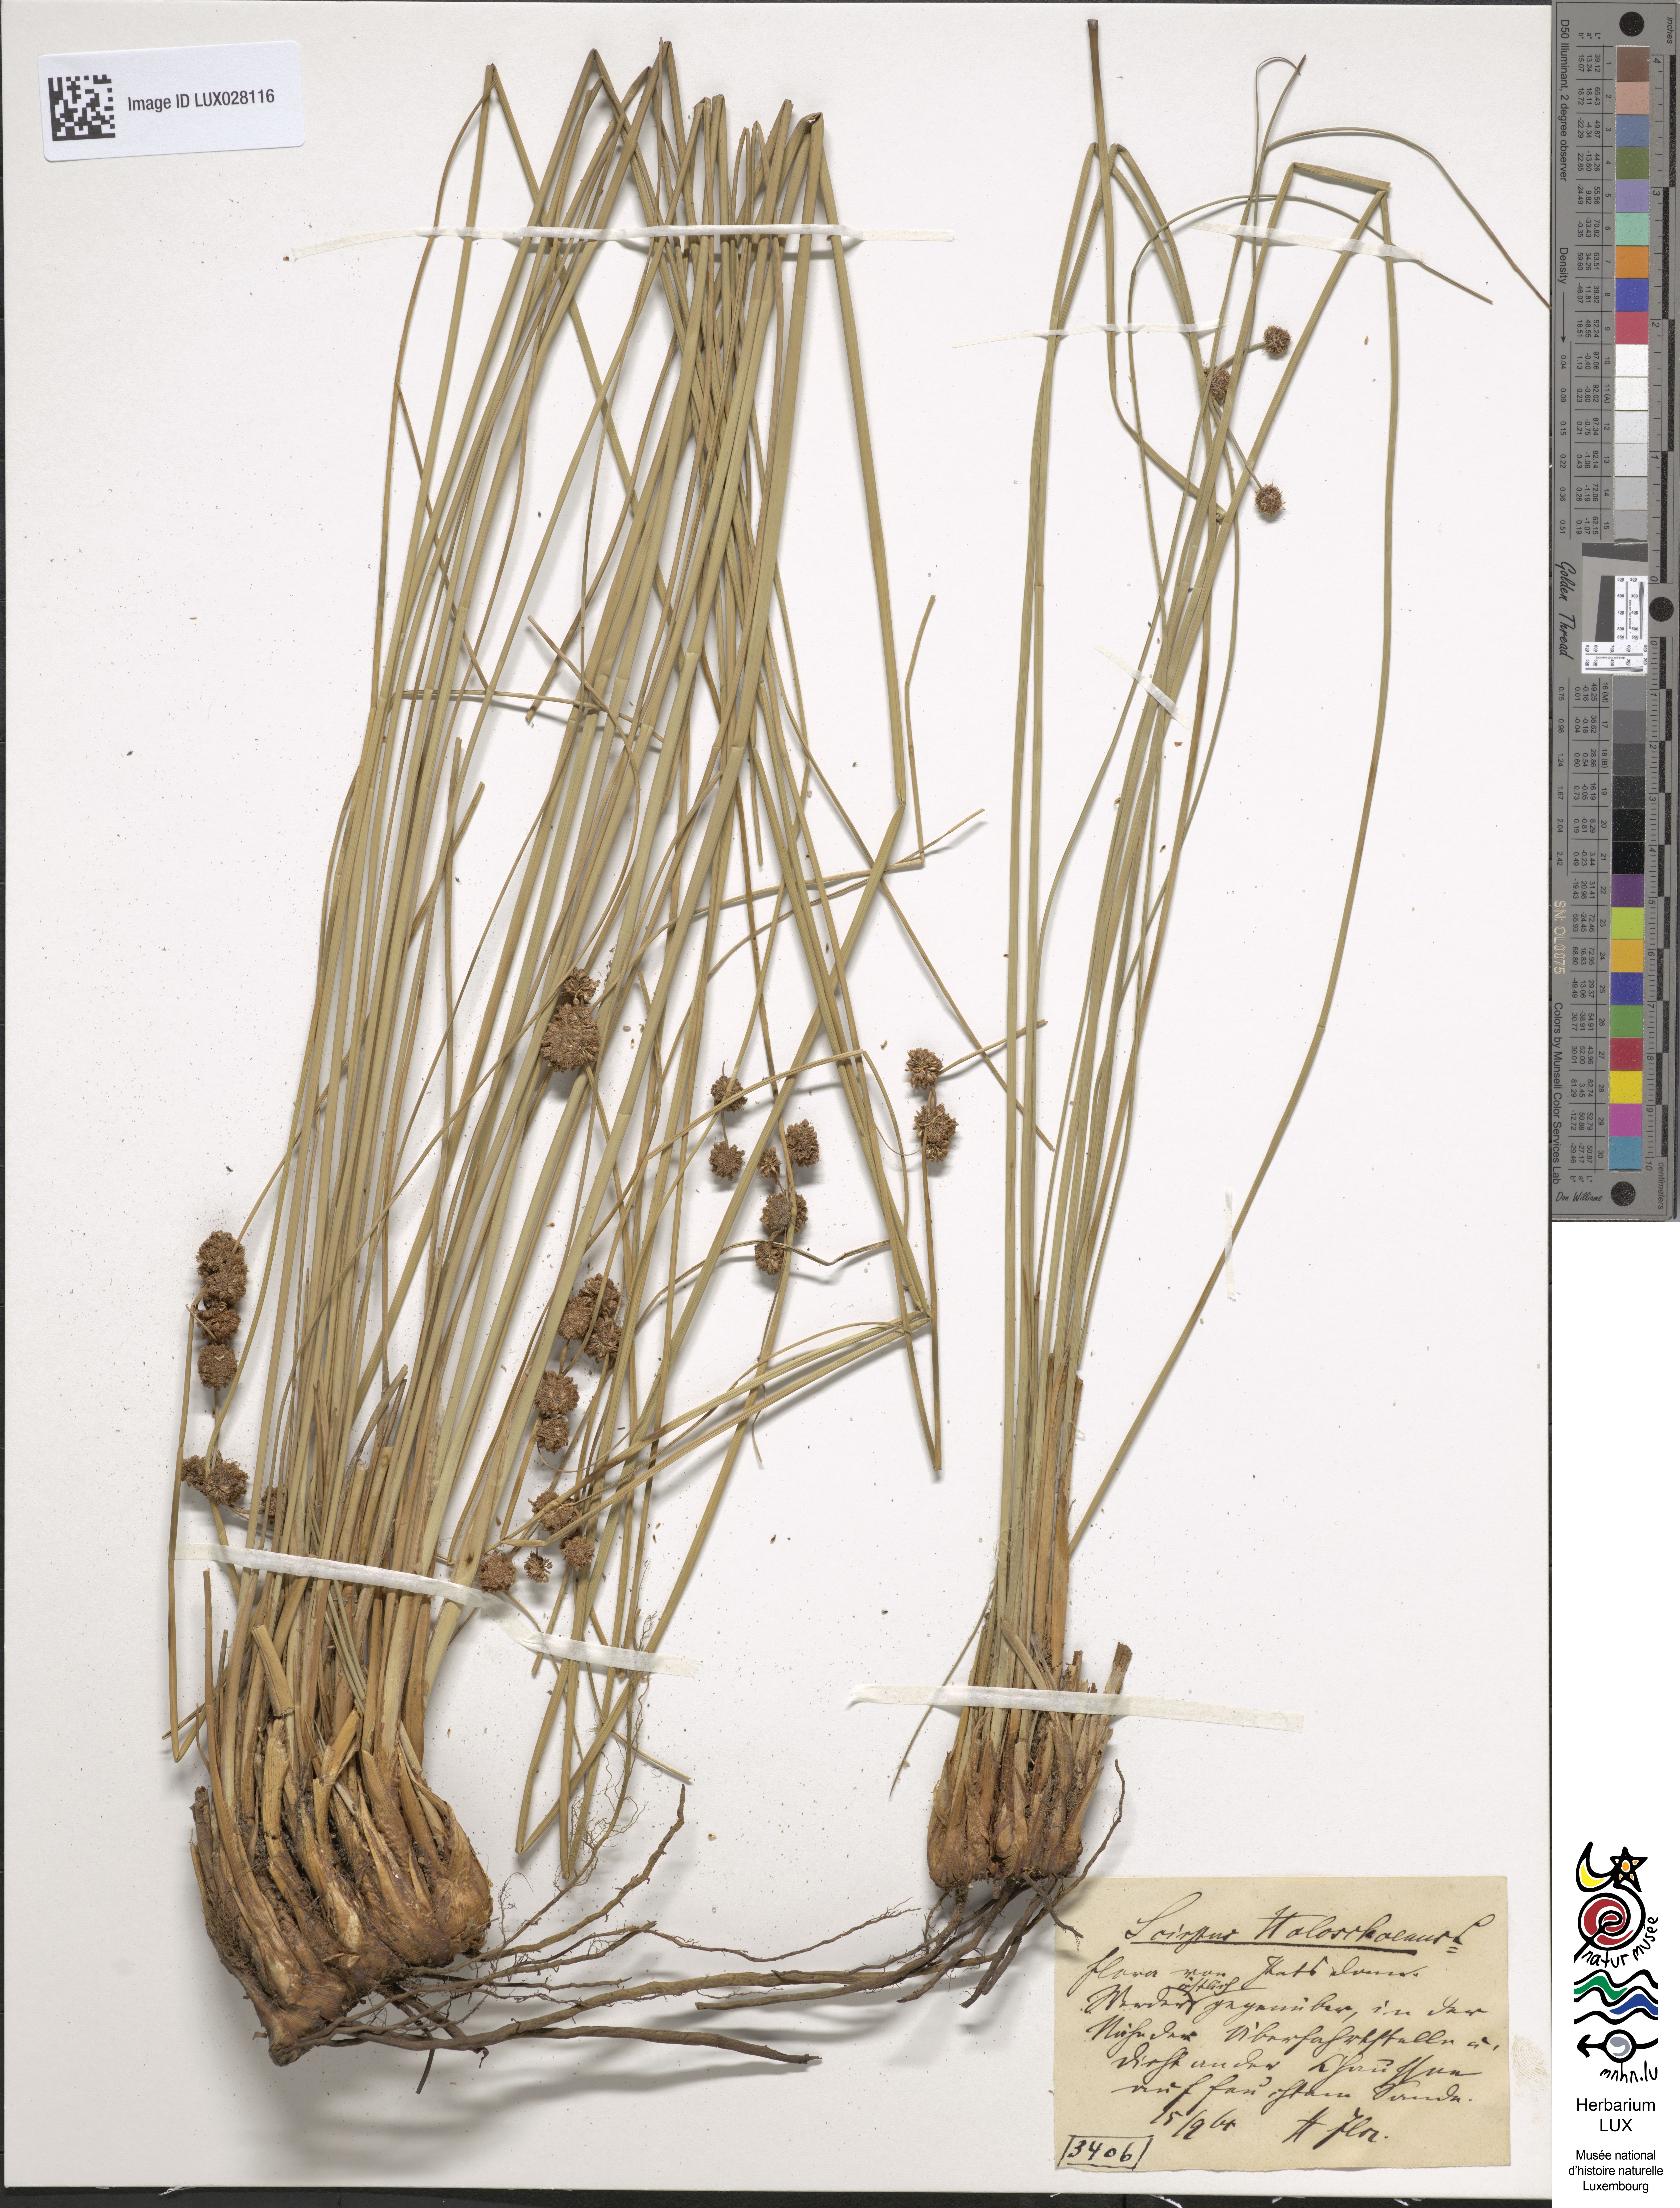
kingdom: Plantae
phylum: Tracheophyta
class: Liliopsida
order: Poales
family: Cyperaceae
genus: Scirpoides
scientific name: Scirpoides holoschoenus
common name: Round-headed club-rush
